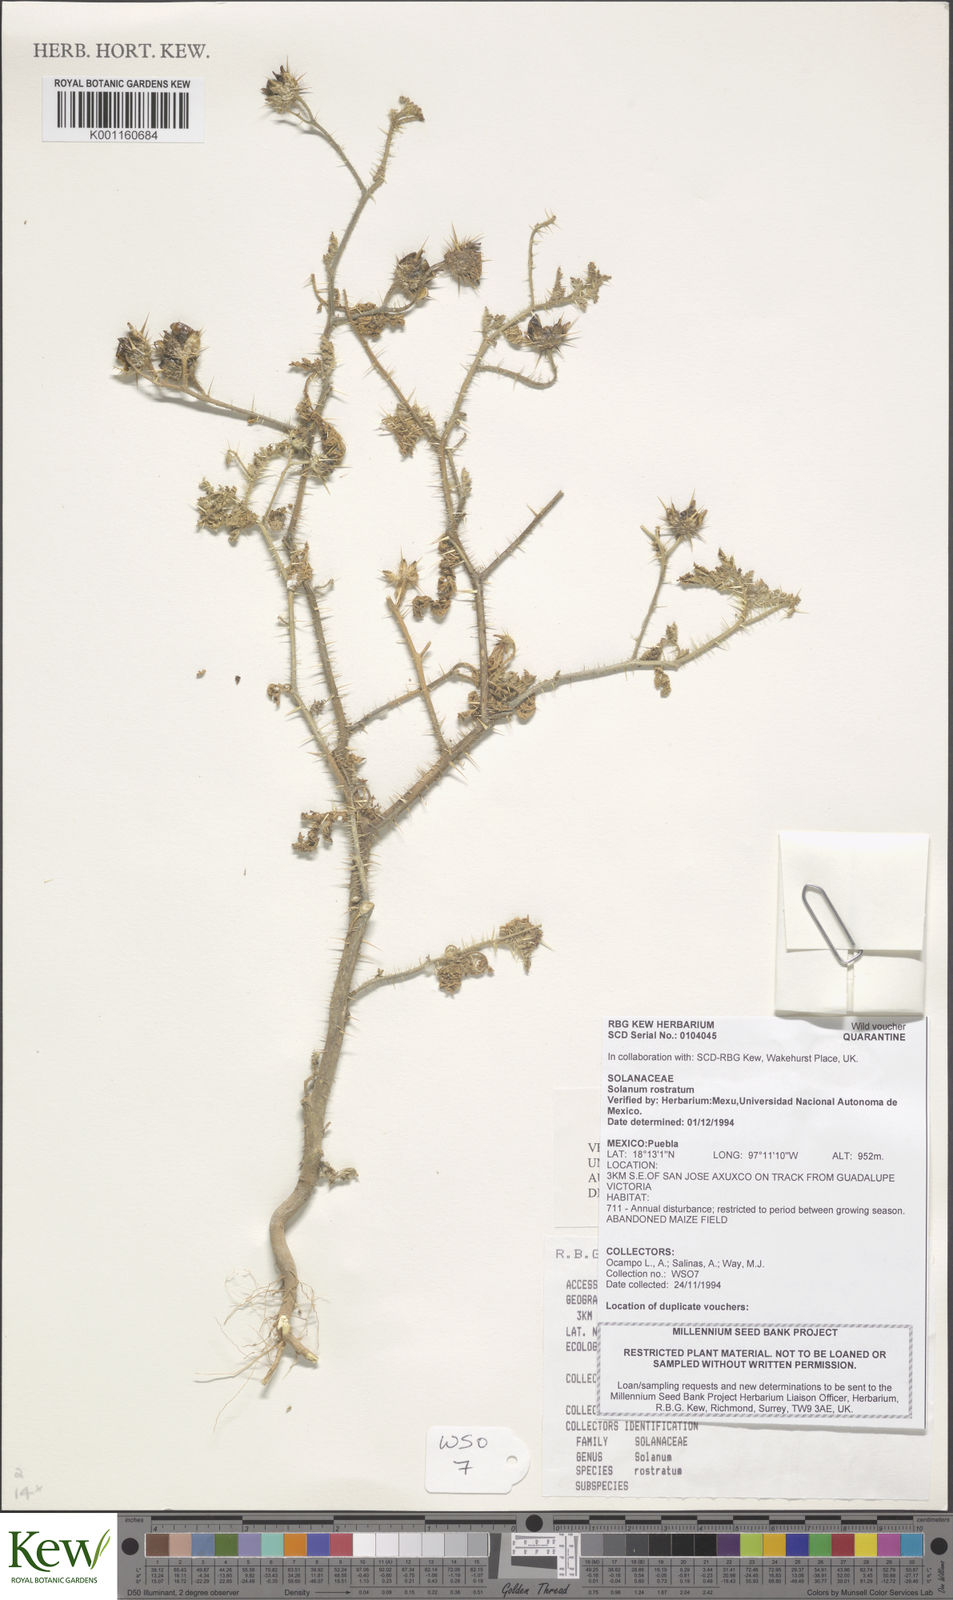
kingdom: Plantae
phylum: Tracheophyta
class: Magnoliopsida
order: Solanales
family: Solanaceae
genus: Solanum
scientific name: Solanum angustifolium
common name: Buffalobur nightshade
